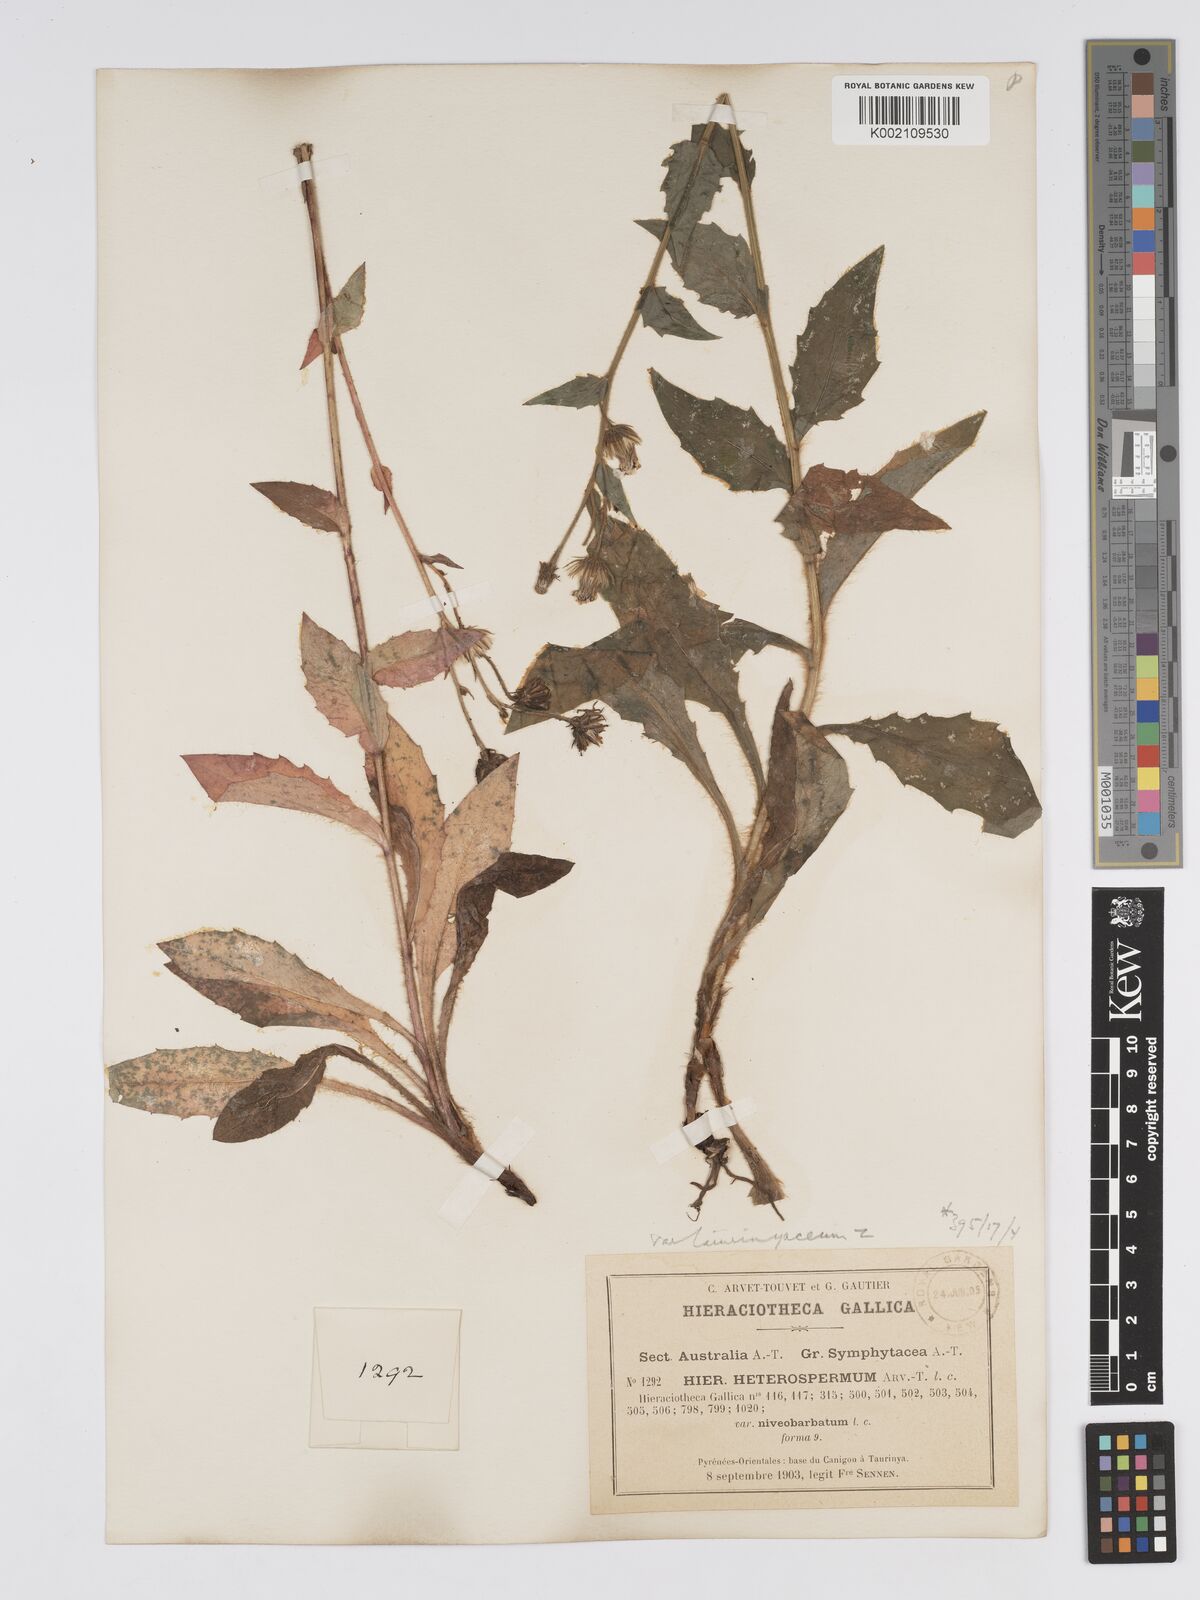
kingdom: Plantae
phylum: Tracheophyta
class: Magnoliopsida
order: Asterales
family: Asteraceae
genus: Hieracium
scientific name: Hieracium racemosum
